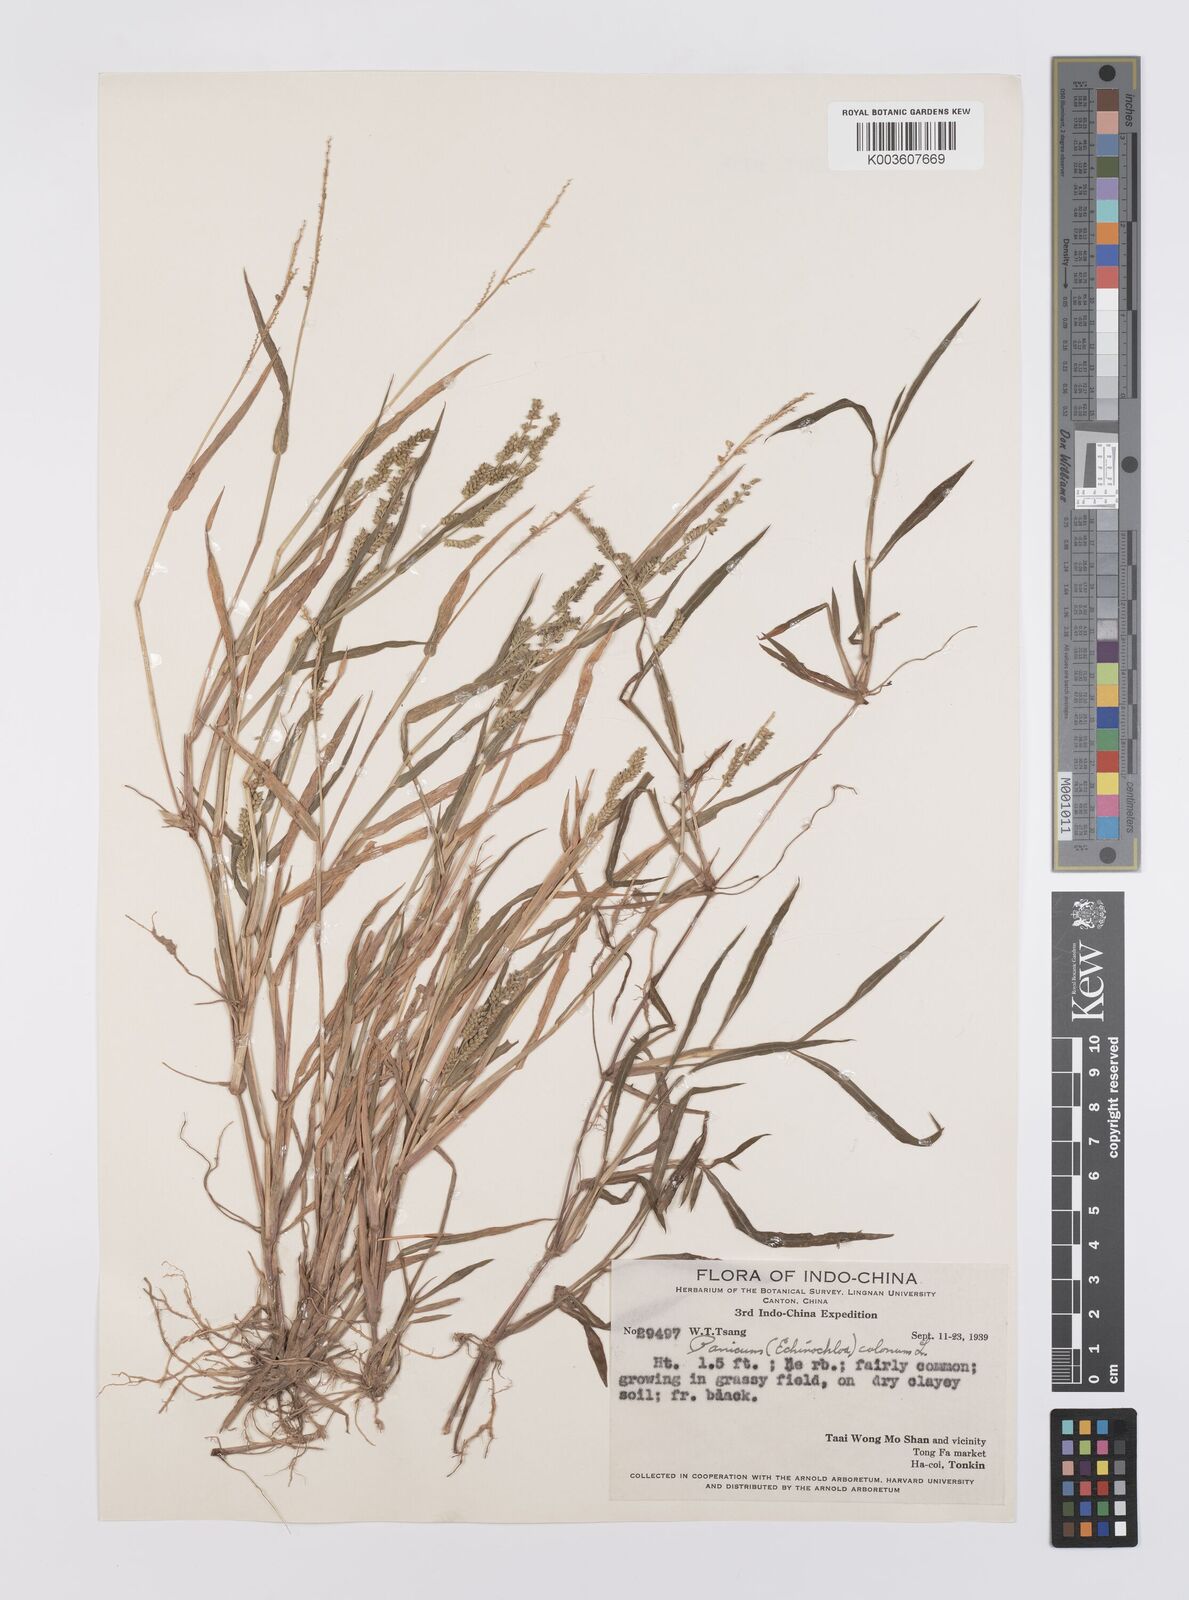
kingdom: Plantae
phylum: Tracheophyta
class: Liliopsida
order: Poales
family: Poaceae
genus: Echinochloa
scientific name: Echinochloa colonum
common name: Jungle rice
